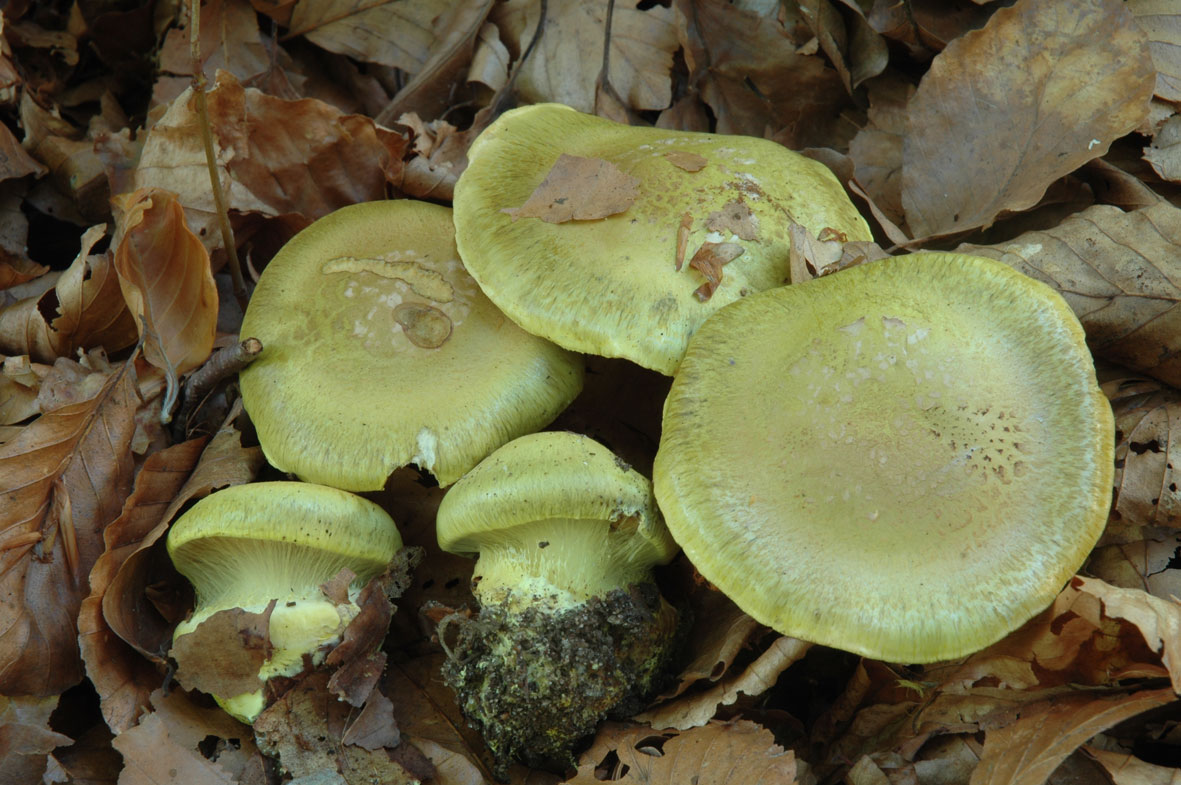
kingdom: Fungi
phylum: Basidiomycota
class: Agaricomycetes
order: Agaricales
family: Cortinariaceae
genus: Calonarius
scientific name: Calonarius odoratus
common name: krydret slørhat
